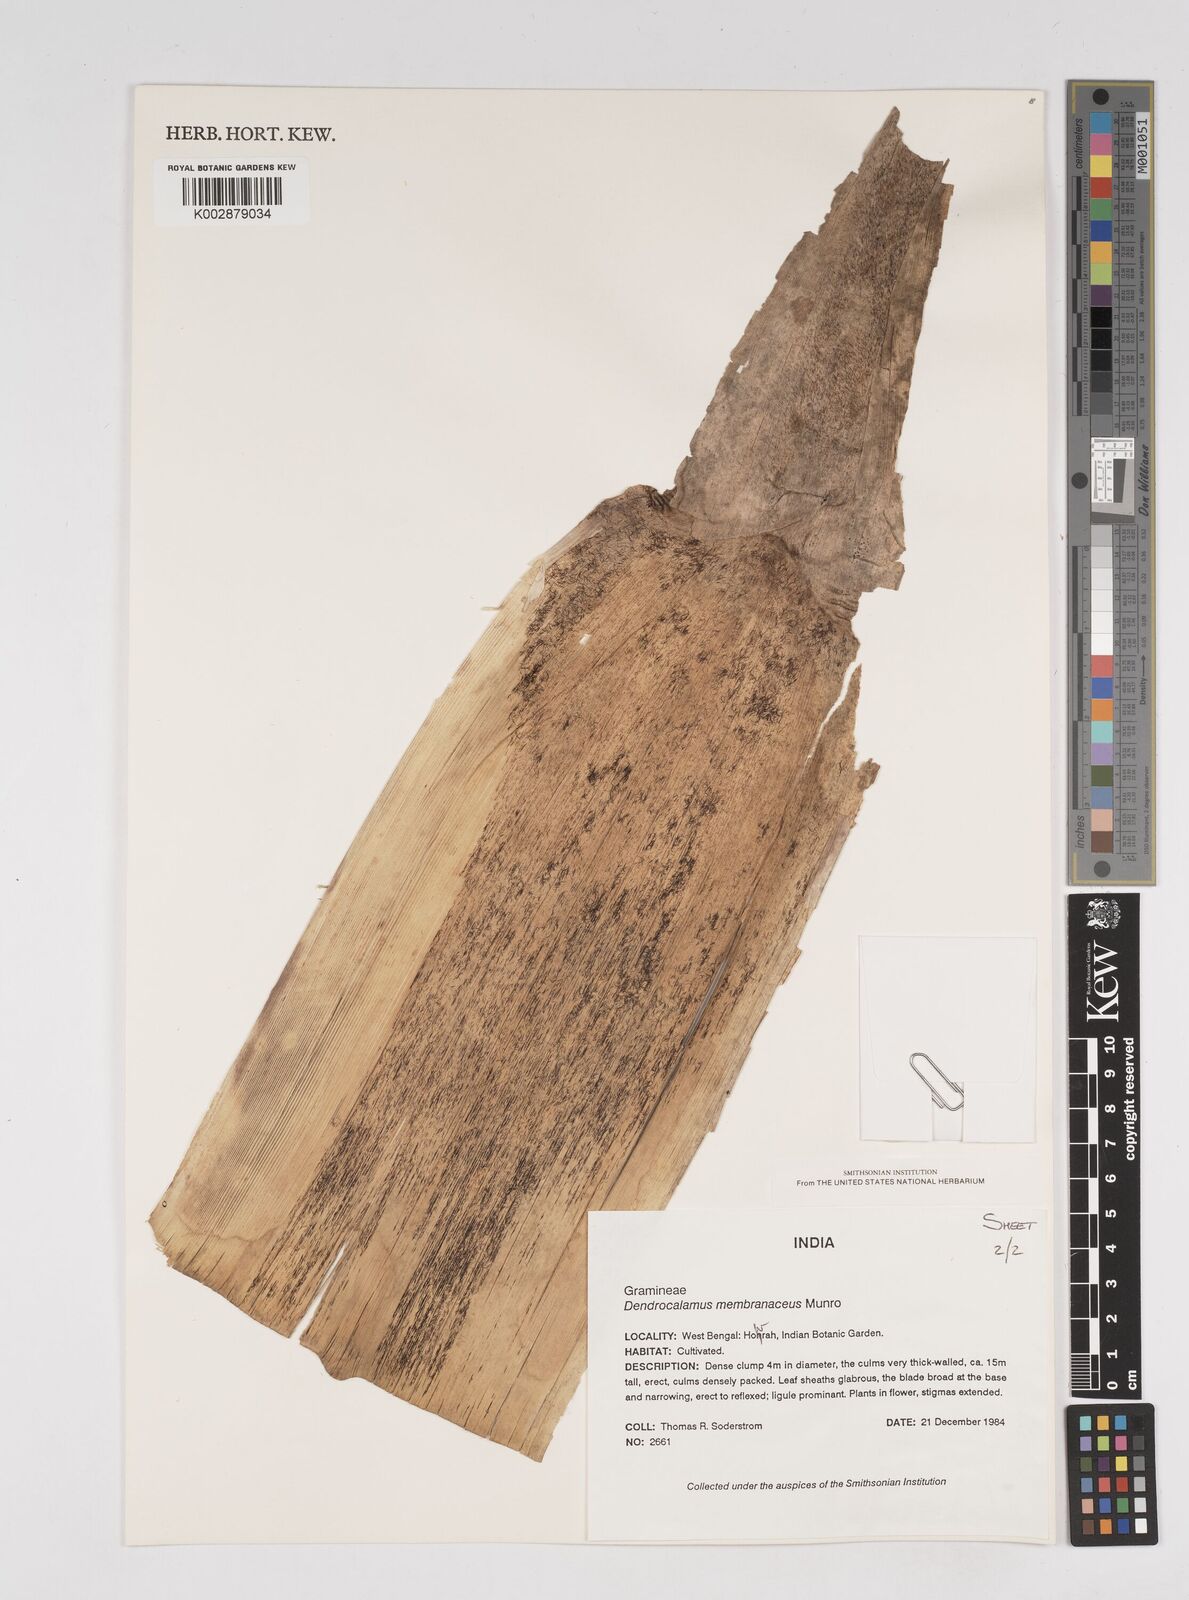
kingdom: Plantae
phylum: Tracheophyta
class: Liliopsida
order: Poales
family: Poaceae
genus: Dendrocalamus
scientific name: Dendrocalamus
